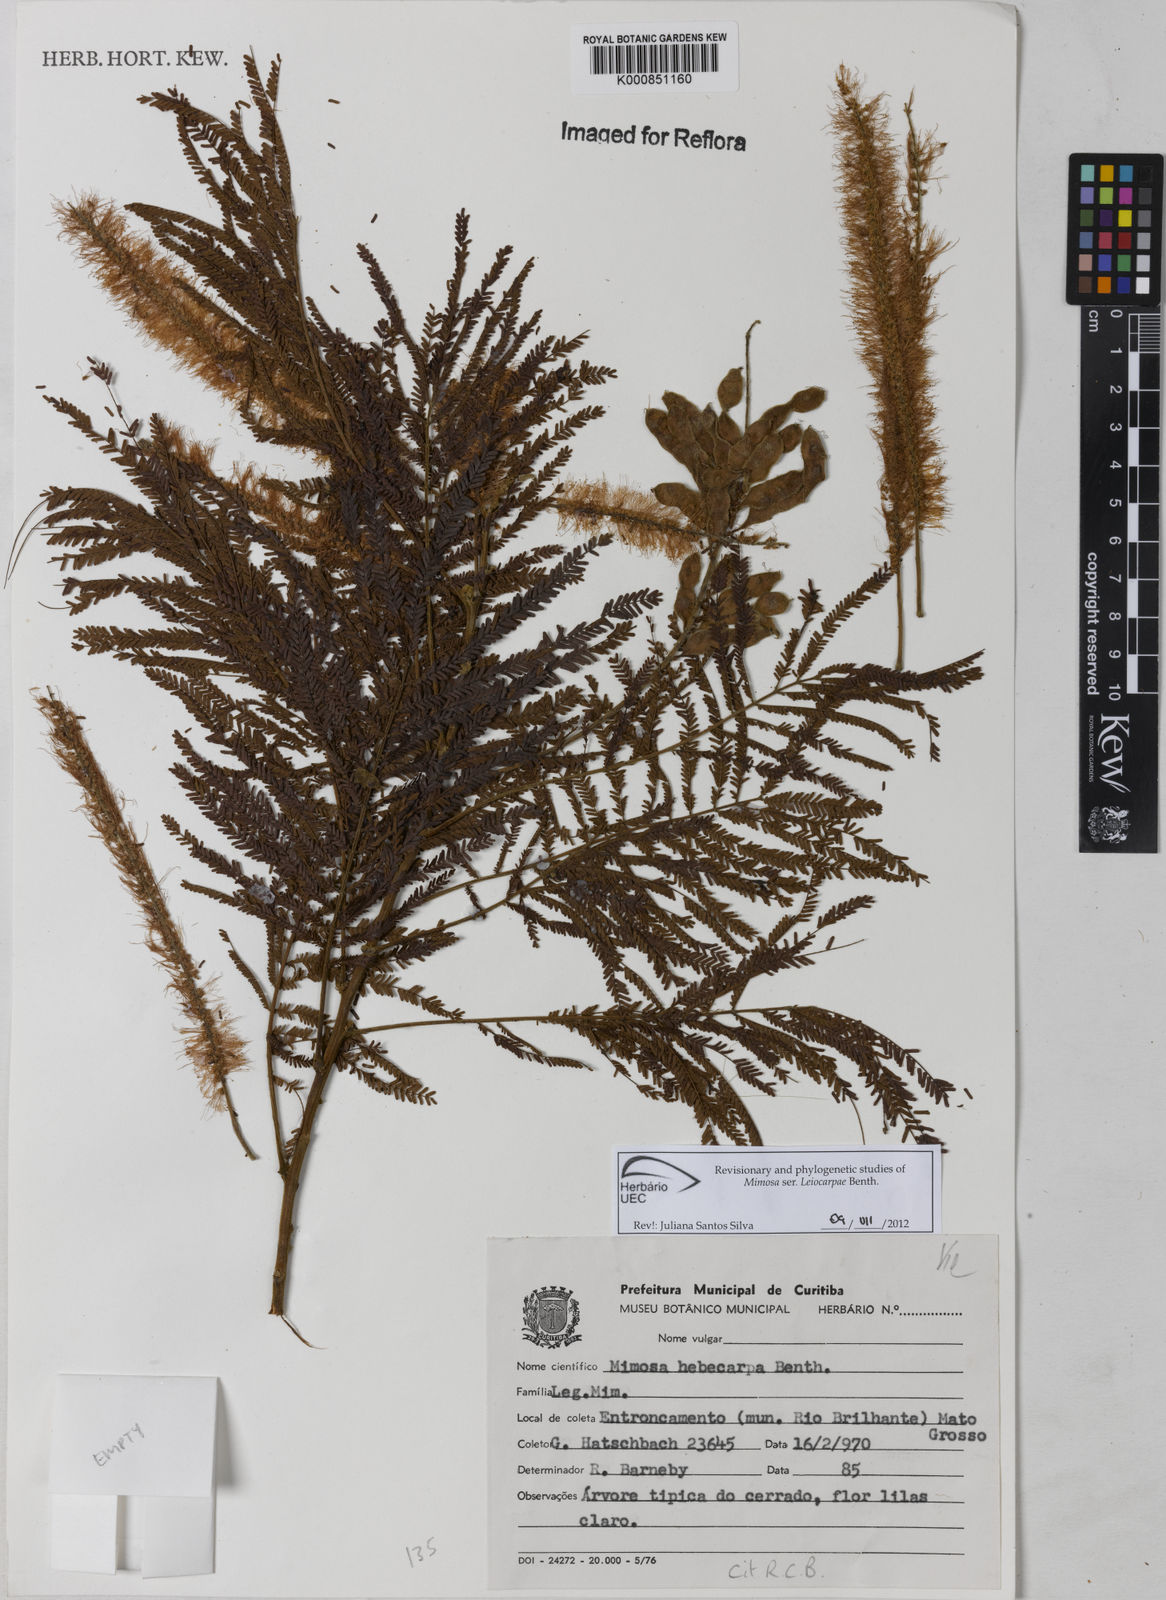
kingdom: Plantae
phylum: Tracheophyta
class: Magnoliopsida
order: Fabales
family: Fabaceae
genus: Mimosa
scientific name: Mimosa hebecarpa
